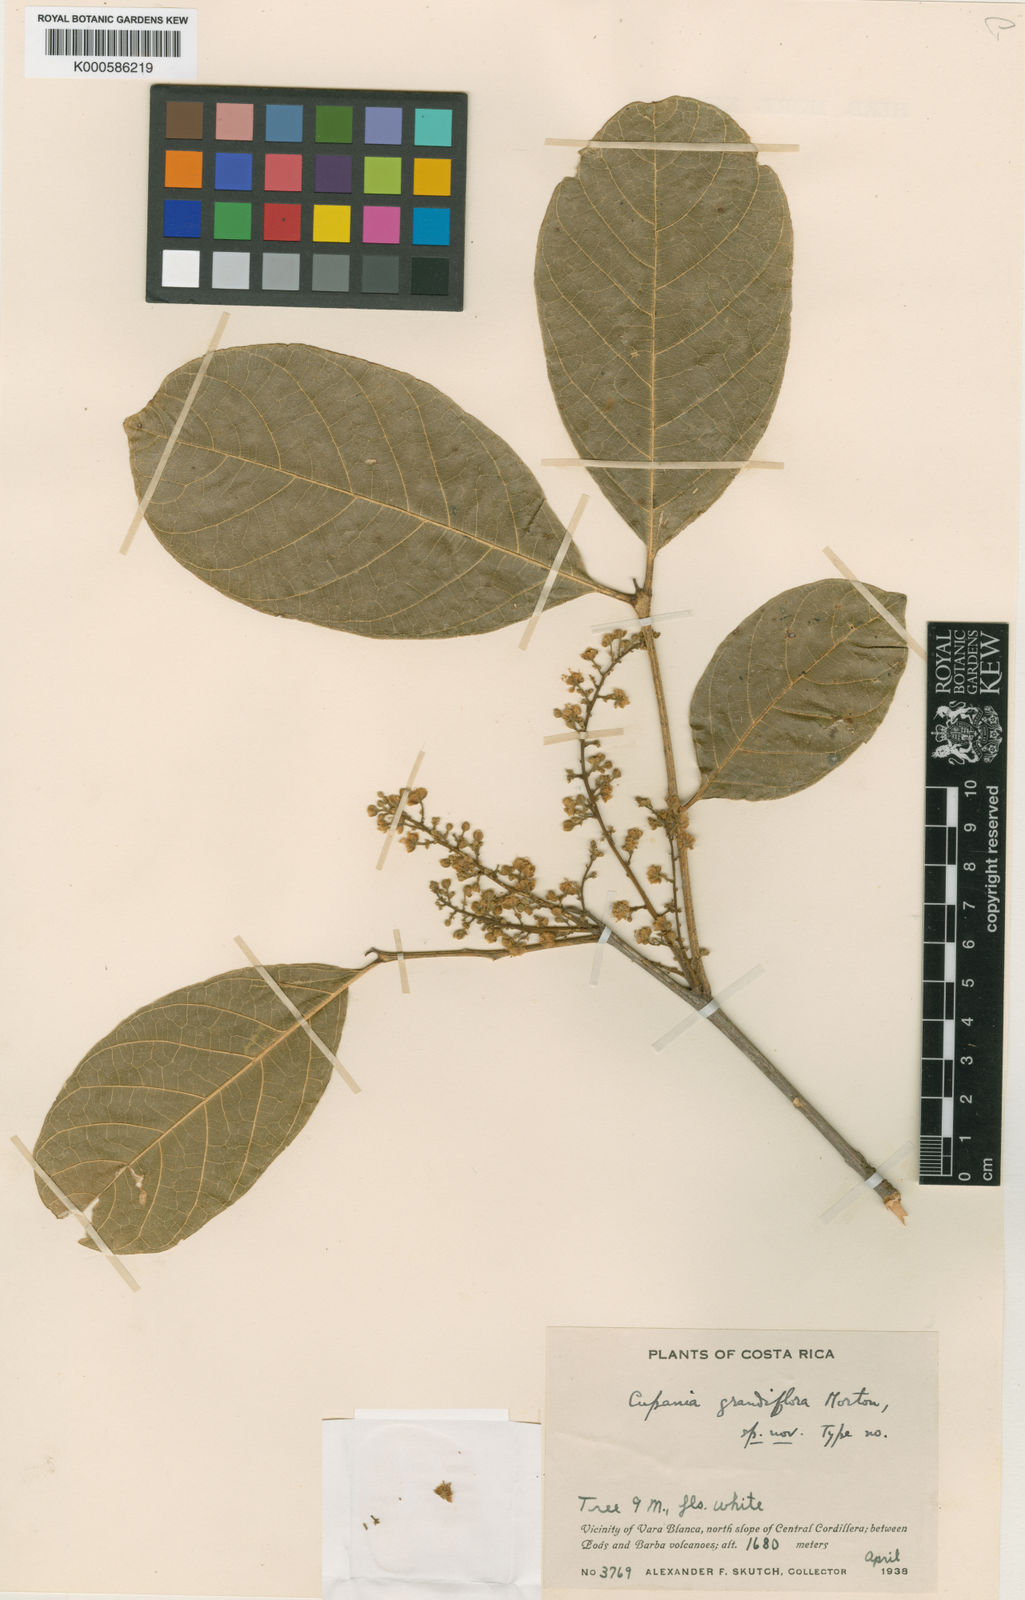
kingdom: Plantae
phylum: Tracheophyta
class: Magnoliopsida
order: Sapindales
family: Sapindaceae
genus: Cupania
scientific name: Cupania grandiflora
